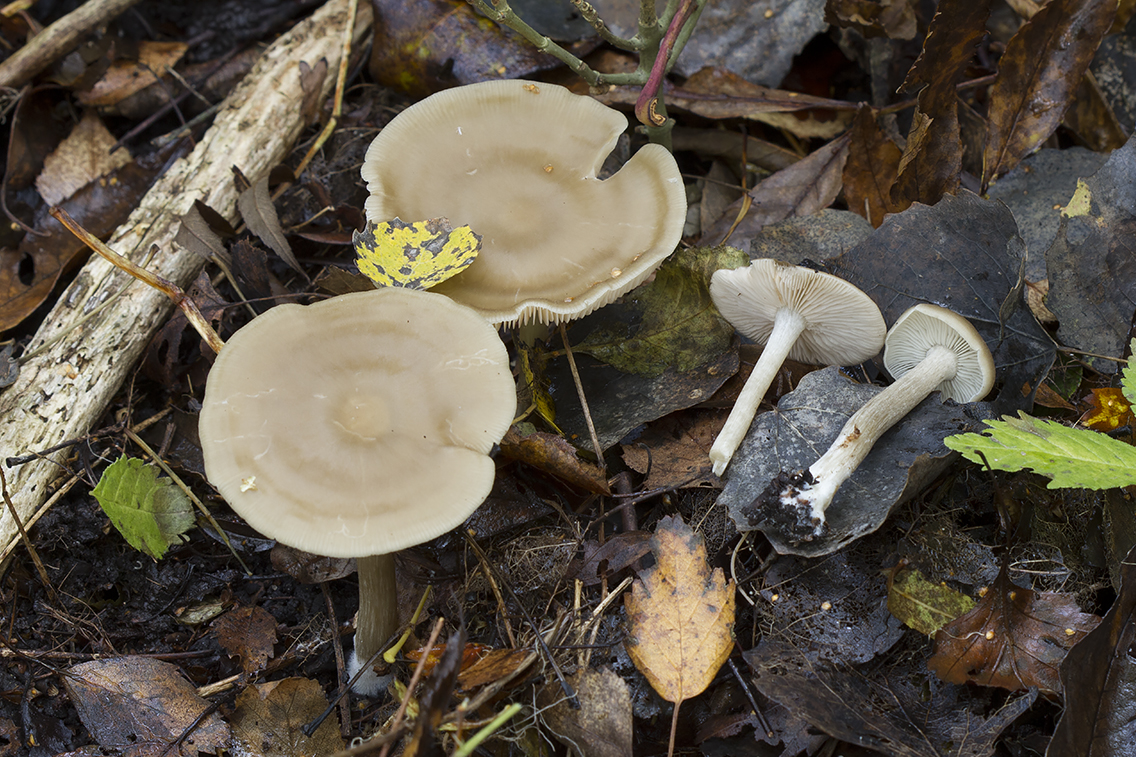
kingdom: Fungi
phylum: Basidiomycota
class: Agaricomycetes
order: Agaricales
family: Entolomataceae
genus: Entoloma
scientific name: Entoloma rhodopolium
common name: skov-rødblad
